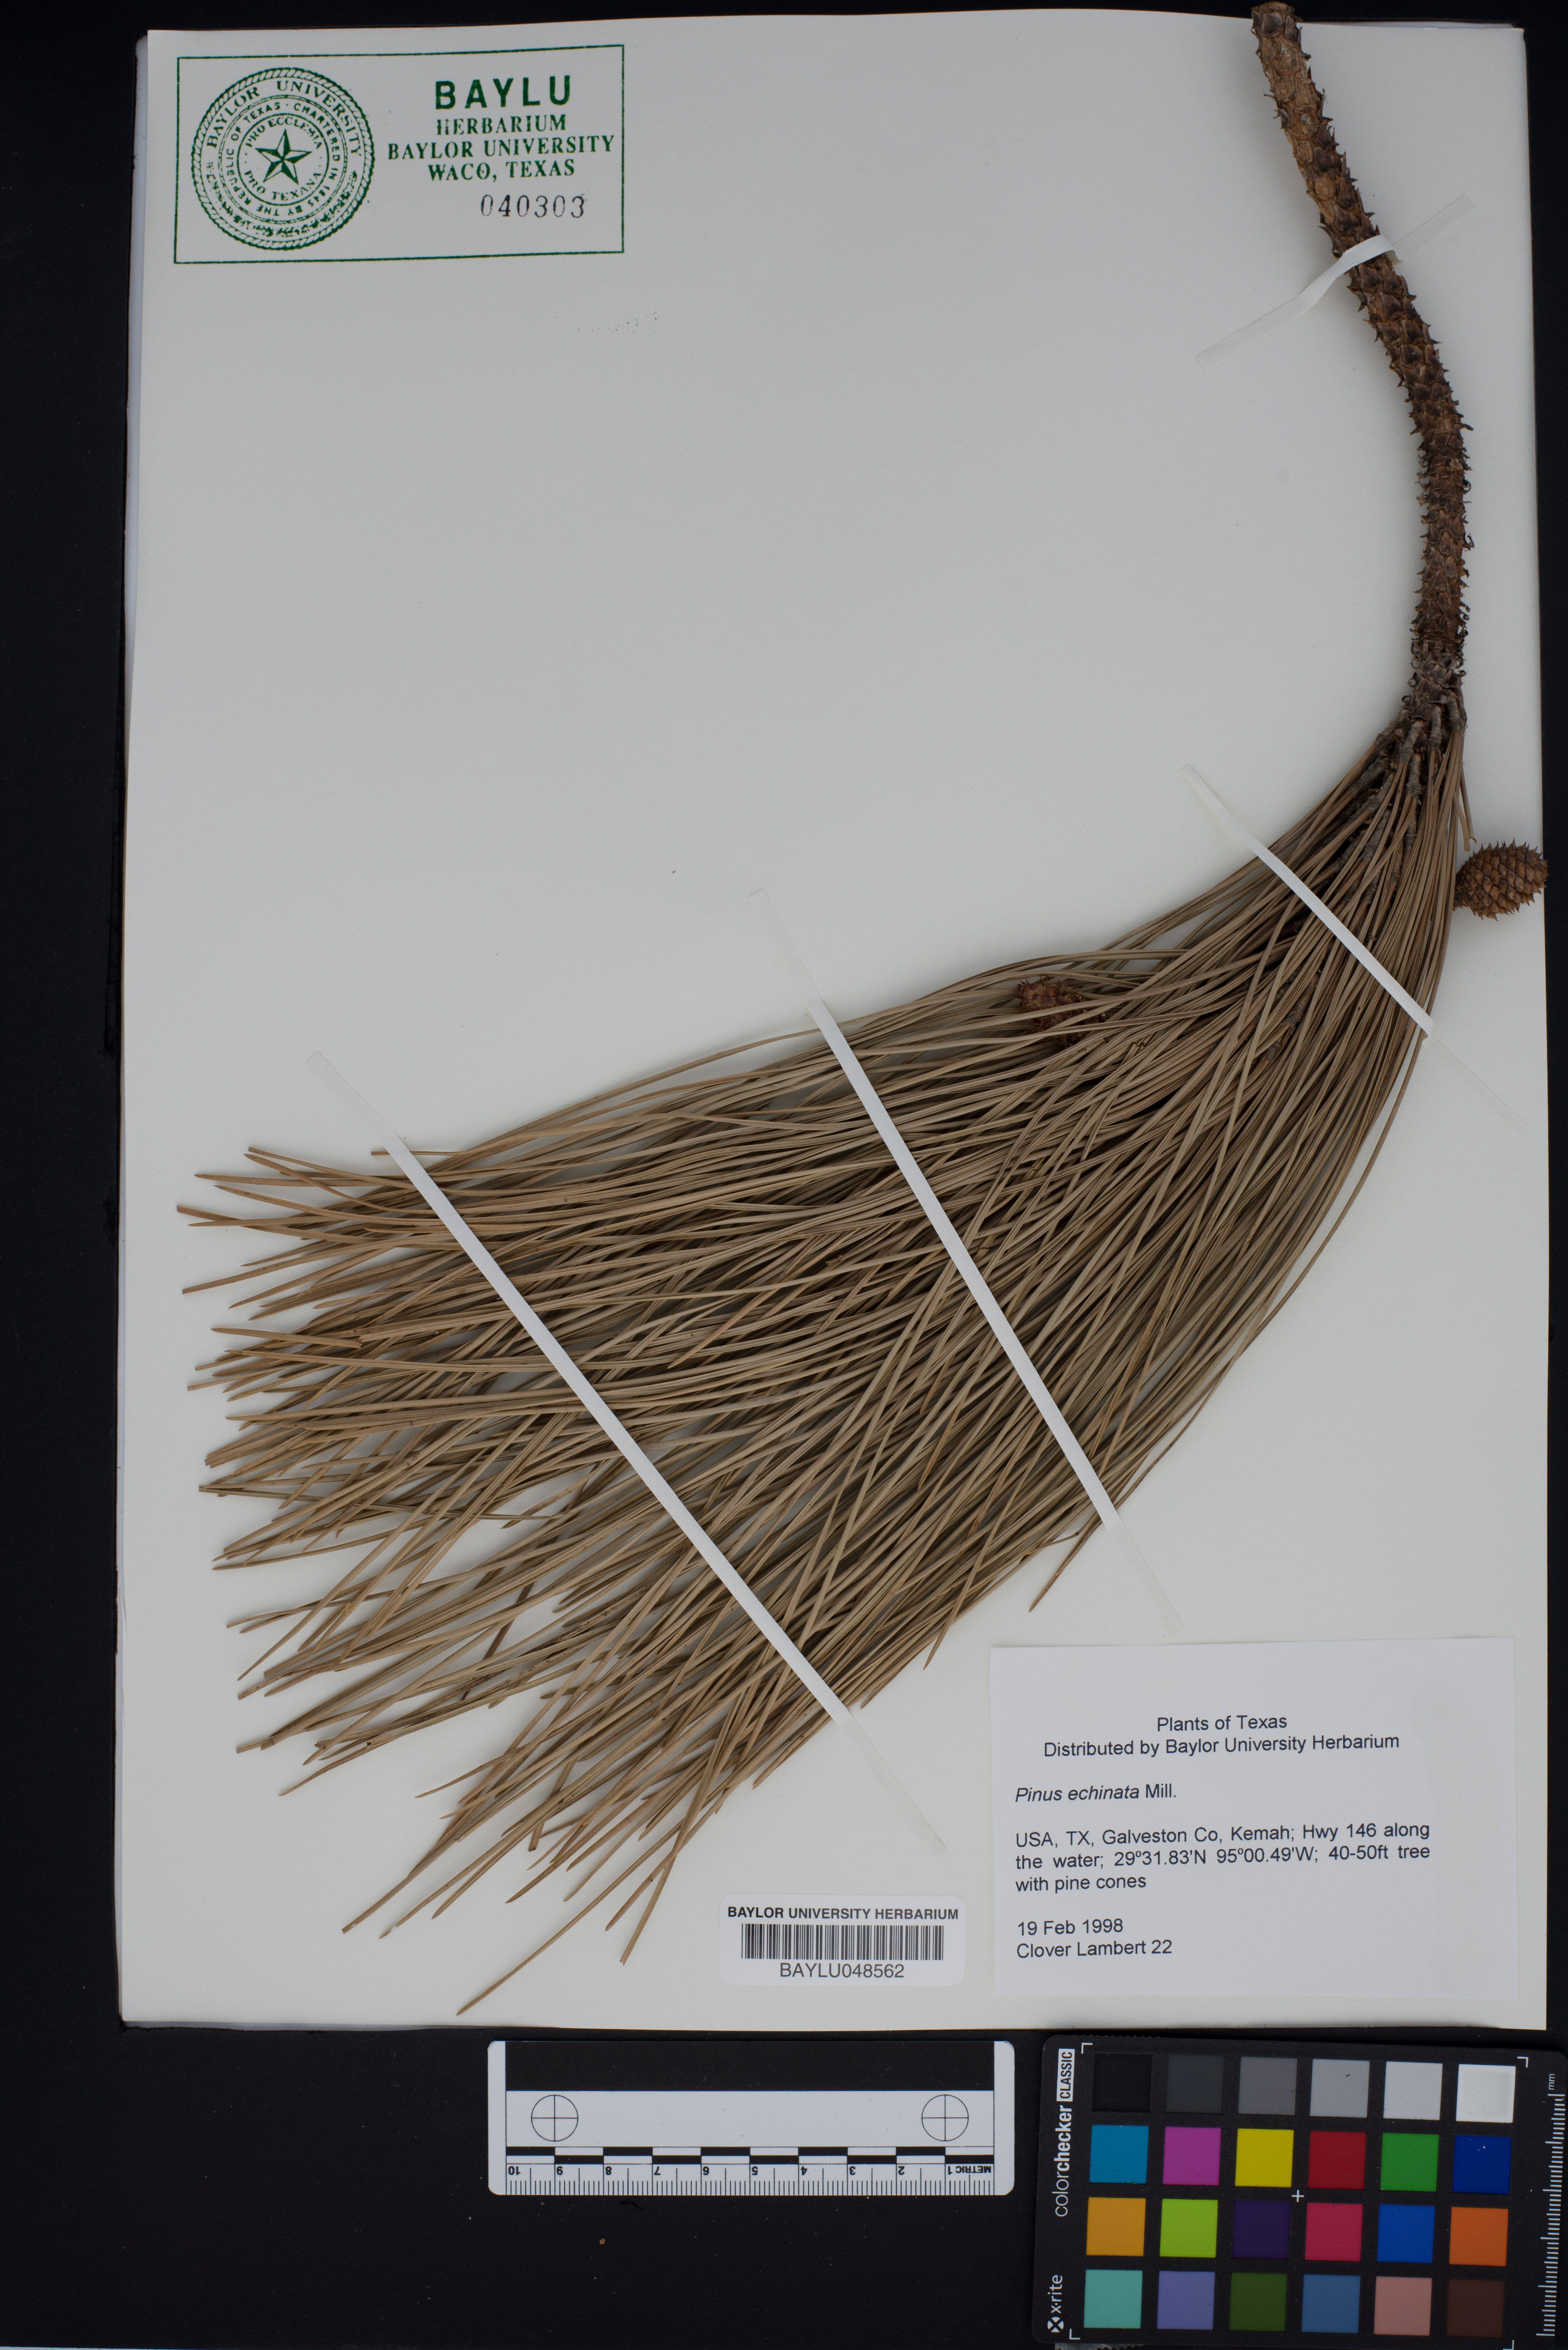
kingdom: Plantae
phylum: Tracheophyta
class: Pinopsida
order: Pinales
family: Pinaceae
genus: Pinus
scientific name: Pinus echinata
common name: Shortleaf pine
